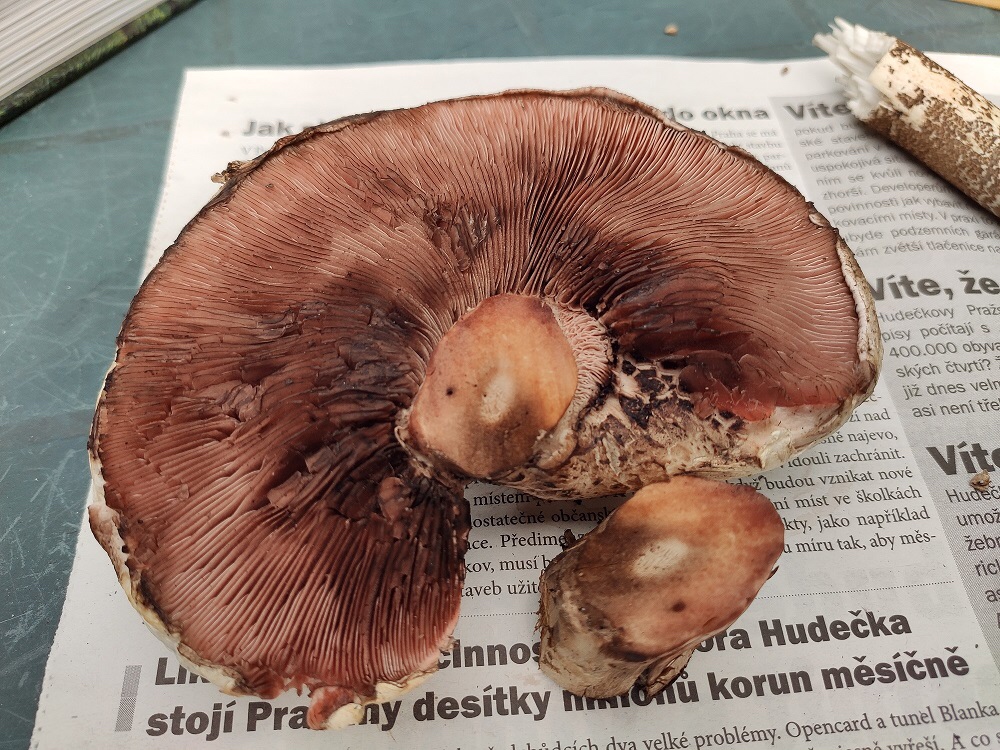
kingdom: Fungi
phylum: Basidiomycota
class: Agaricomycetes
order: Agaricales
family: Agaricaceae
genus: Agaricus
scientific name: Agaricus
